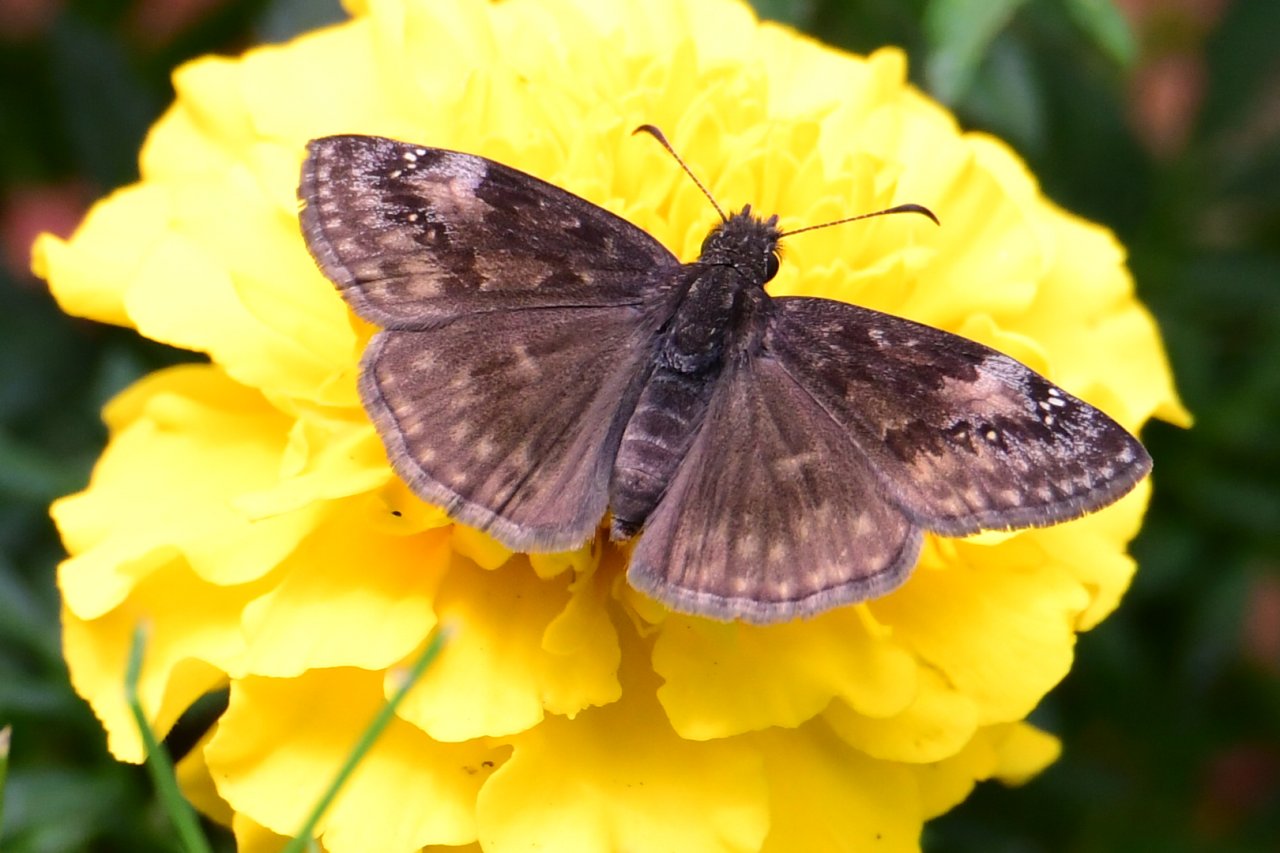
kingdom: Animalia
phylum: Arthropoda
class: Insecta
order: Lepidoptera
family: Hesperiidae
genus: Gesta
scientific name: Gesta
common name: Wild Indigo Duskywing
